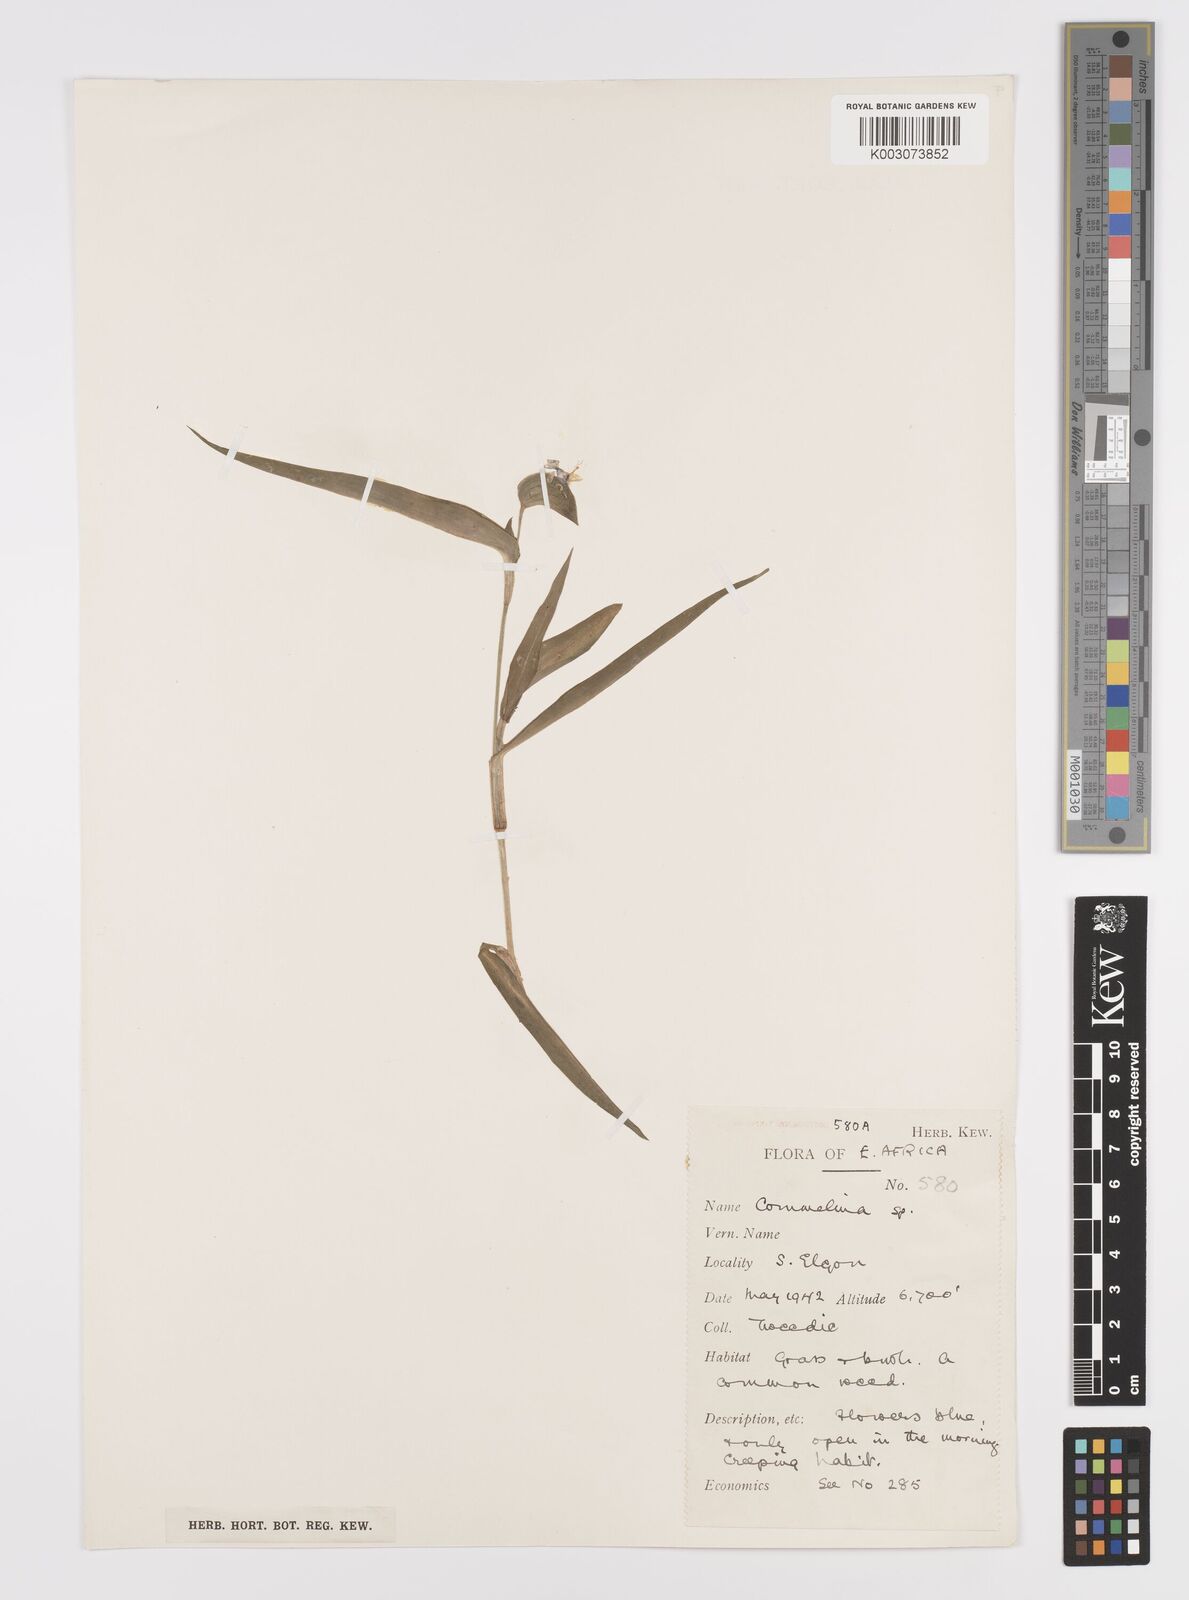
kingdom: Plantae
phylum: Tracheophyta
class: Liliopsida
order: Commelinales
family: Commelinaceae
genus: Commelina
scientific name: Commelina latifolia
